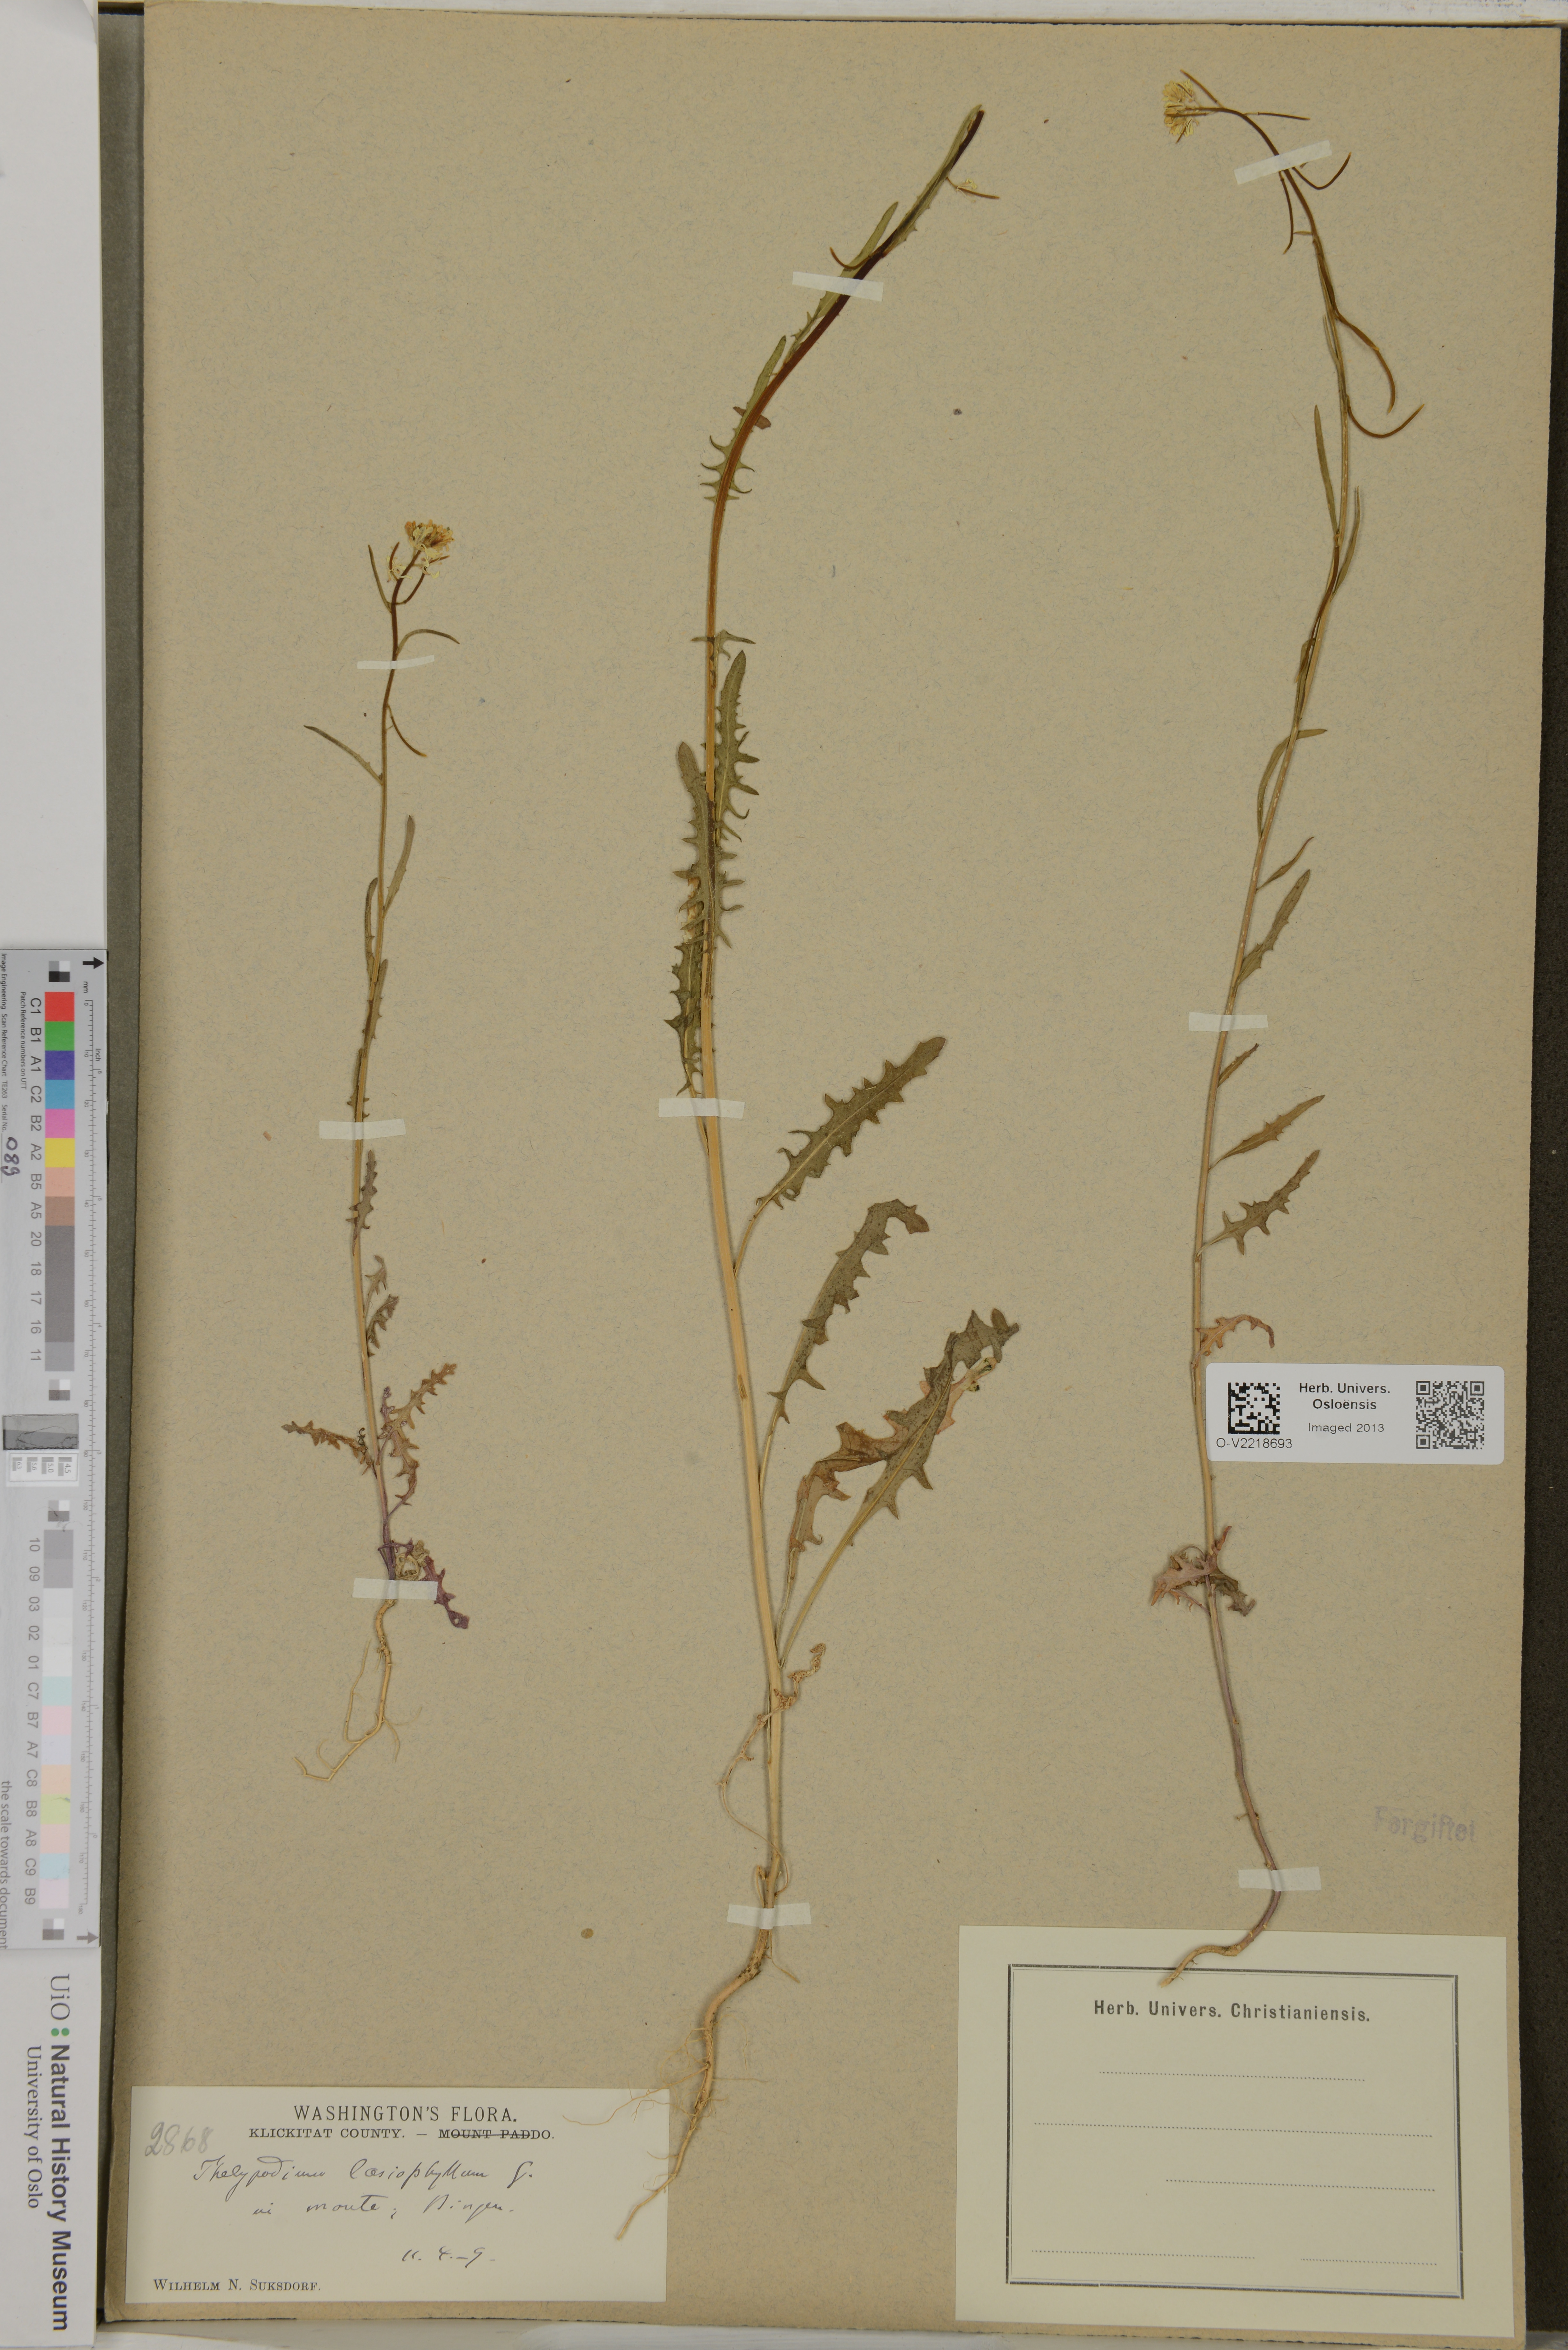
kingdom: Plantae
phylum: Tracheophyta
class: Magnoliopsida
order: Brassicales
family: Brassicaceae
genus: Streptanthus
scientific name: Streptanthus lasiophyllus
